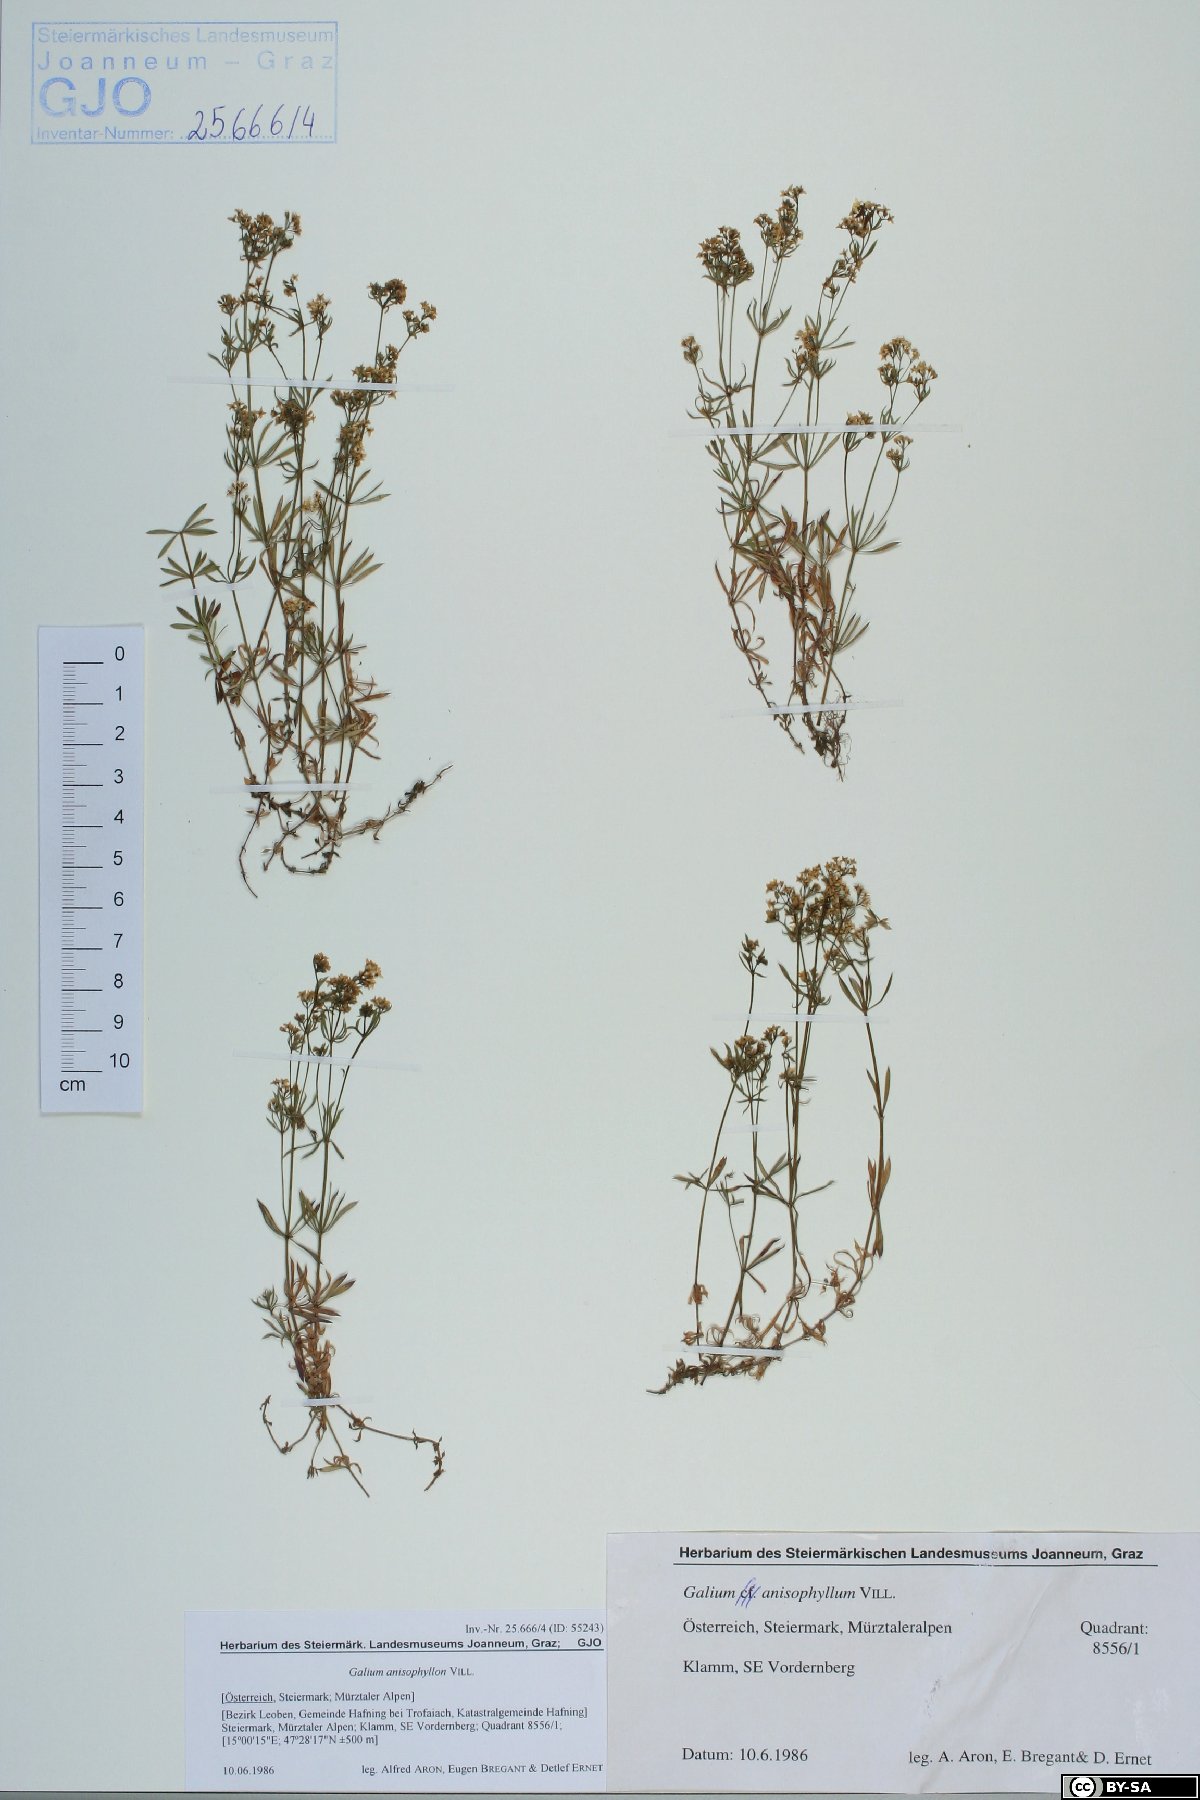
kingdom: Plantae
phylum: Tracheophyta
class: Magnoliopsida
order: Gentianales
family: Rubiaceae
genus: Galium
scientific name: Galium anisophyllon
